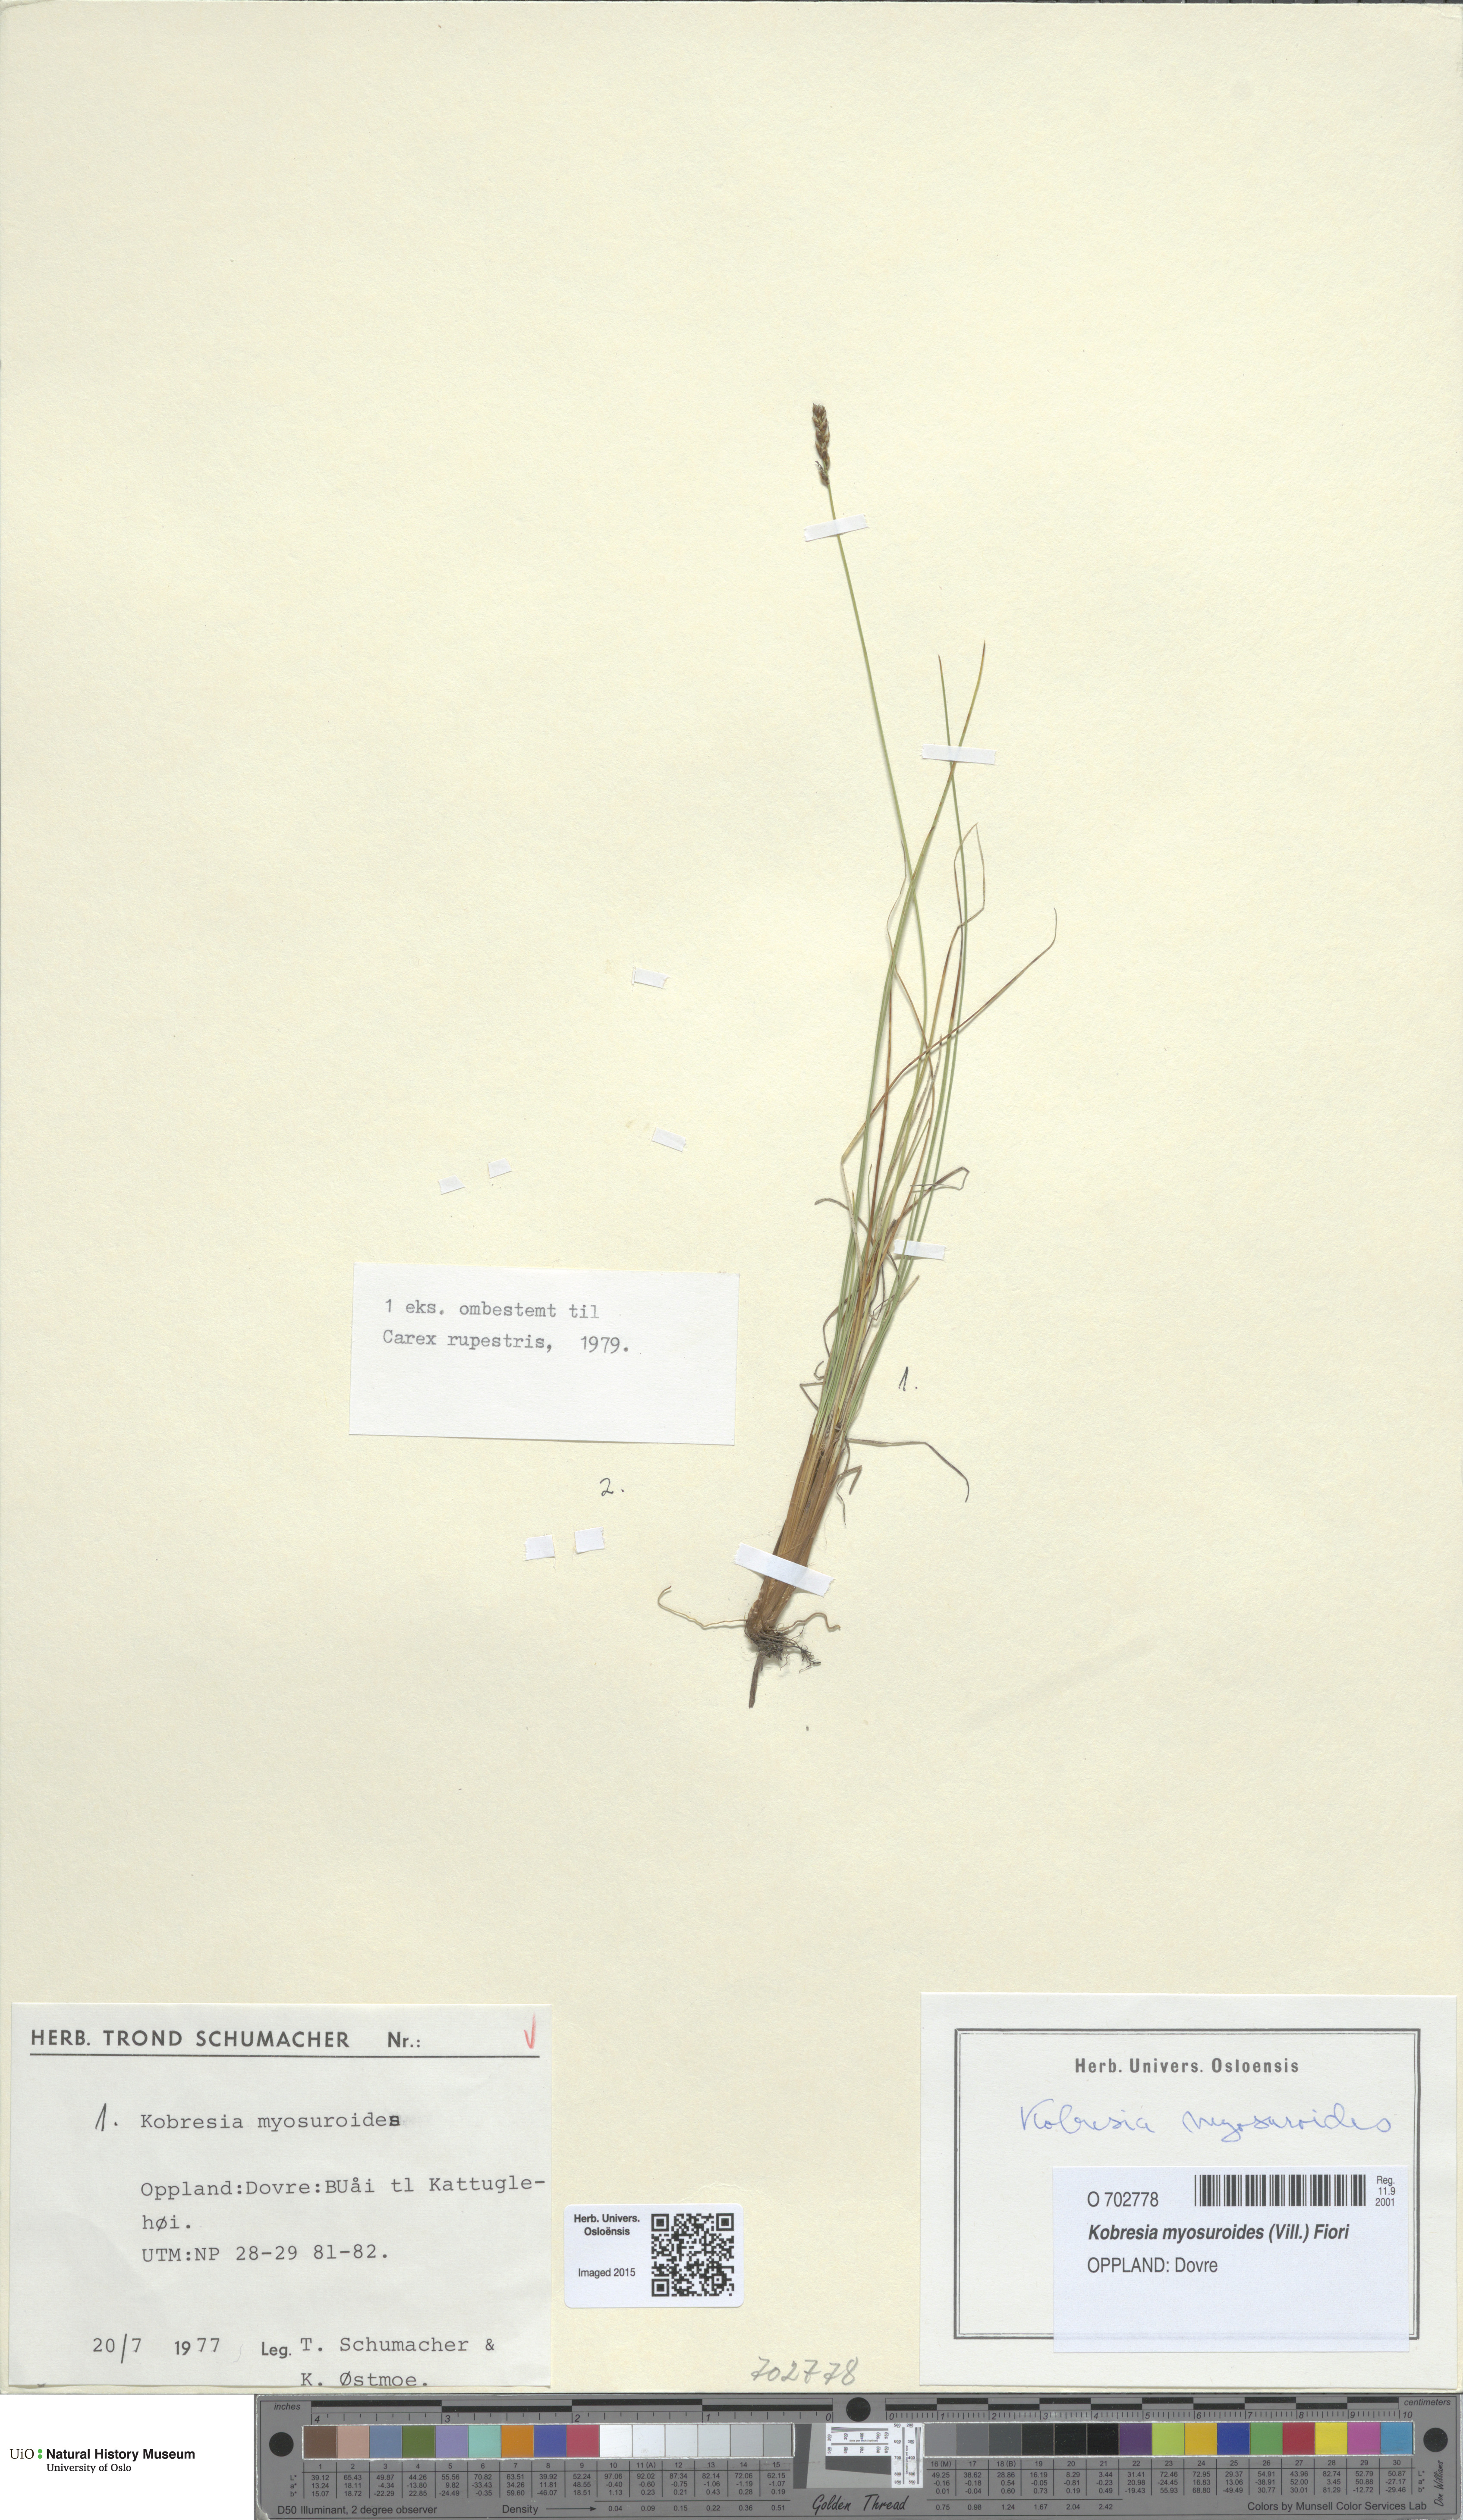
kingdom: Plantae
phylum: Tracheophyta
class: Liliopsida
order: Poales
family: Cyperaceae
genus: Carex
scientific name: Carex myosuroides
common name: Bellard's bog sedge
